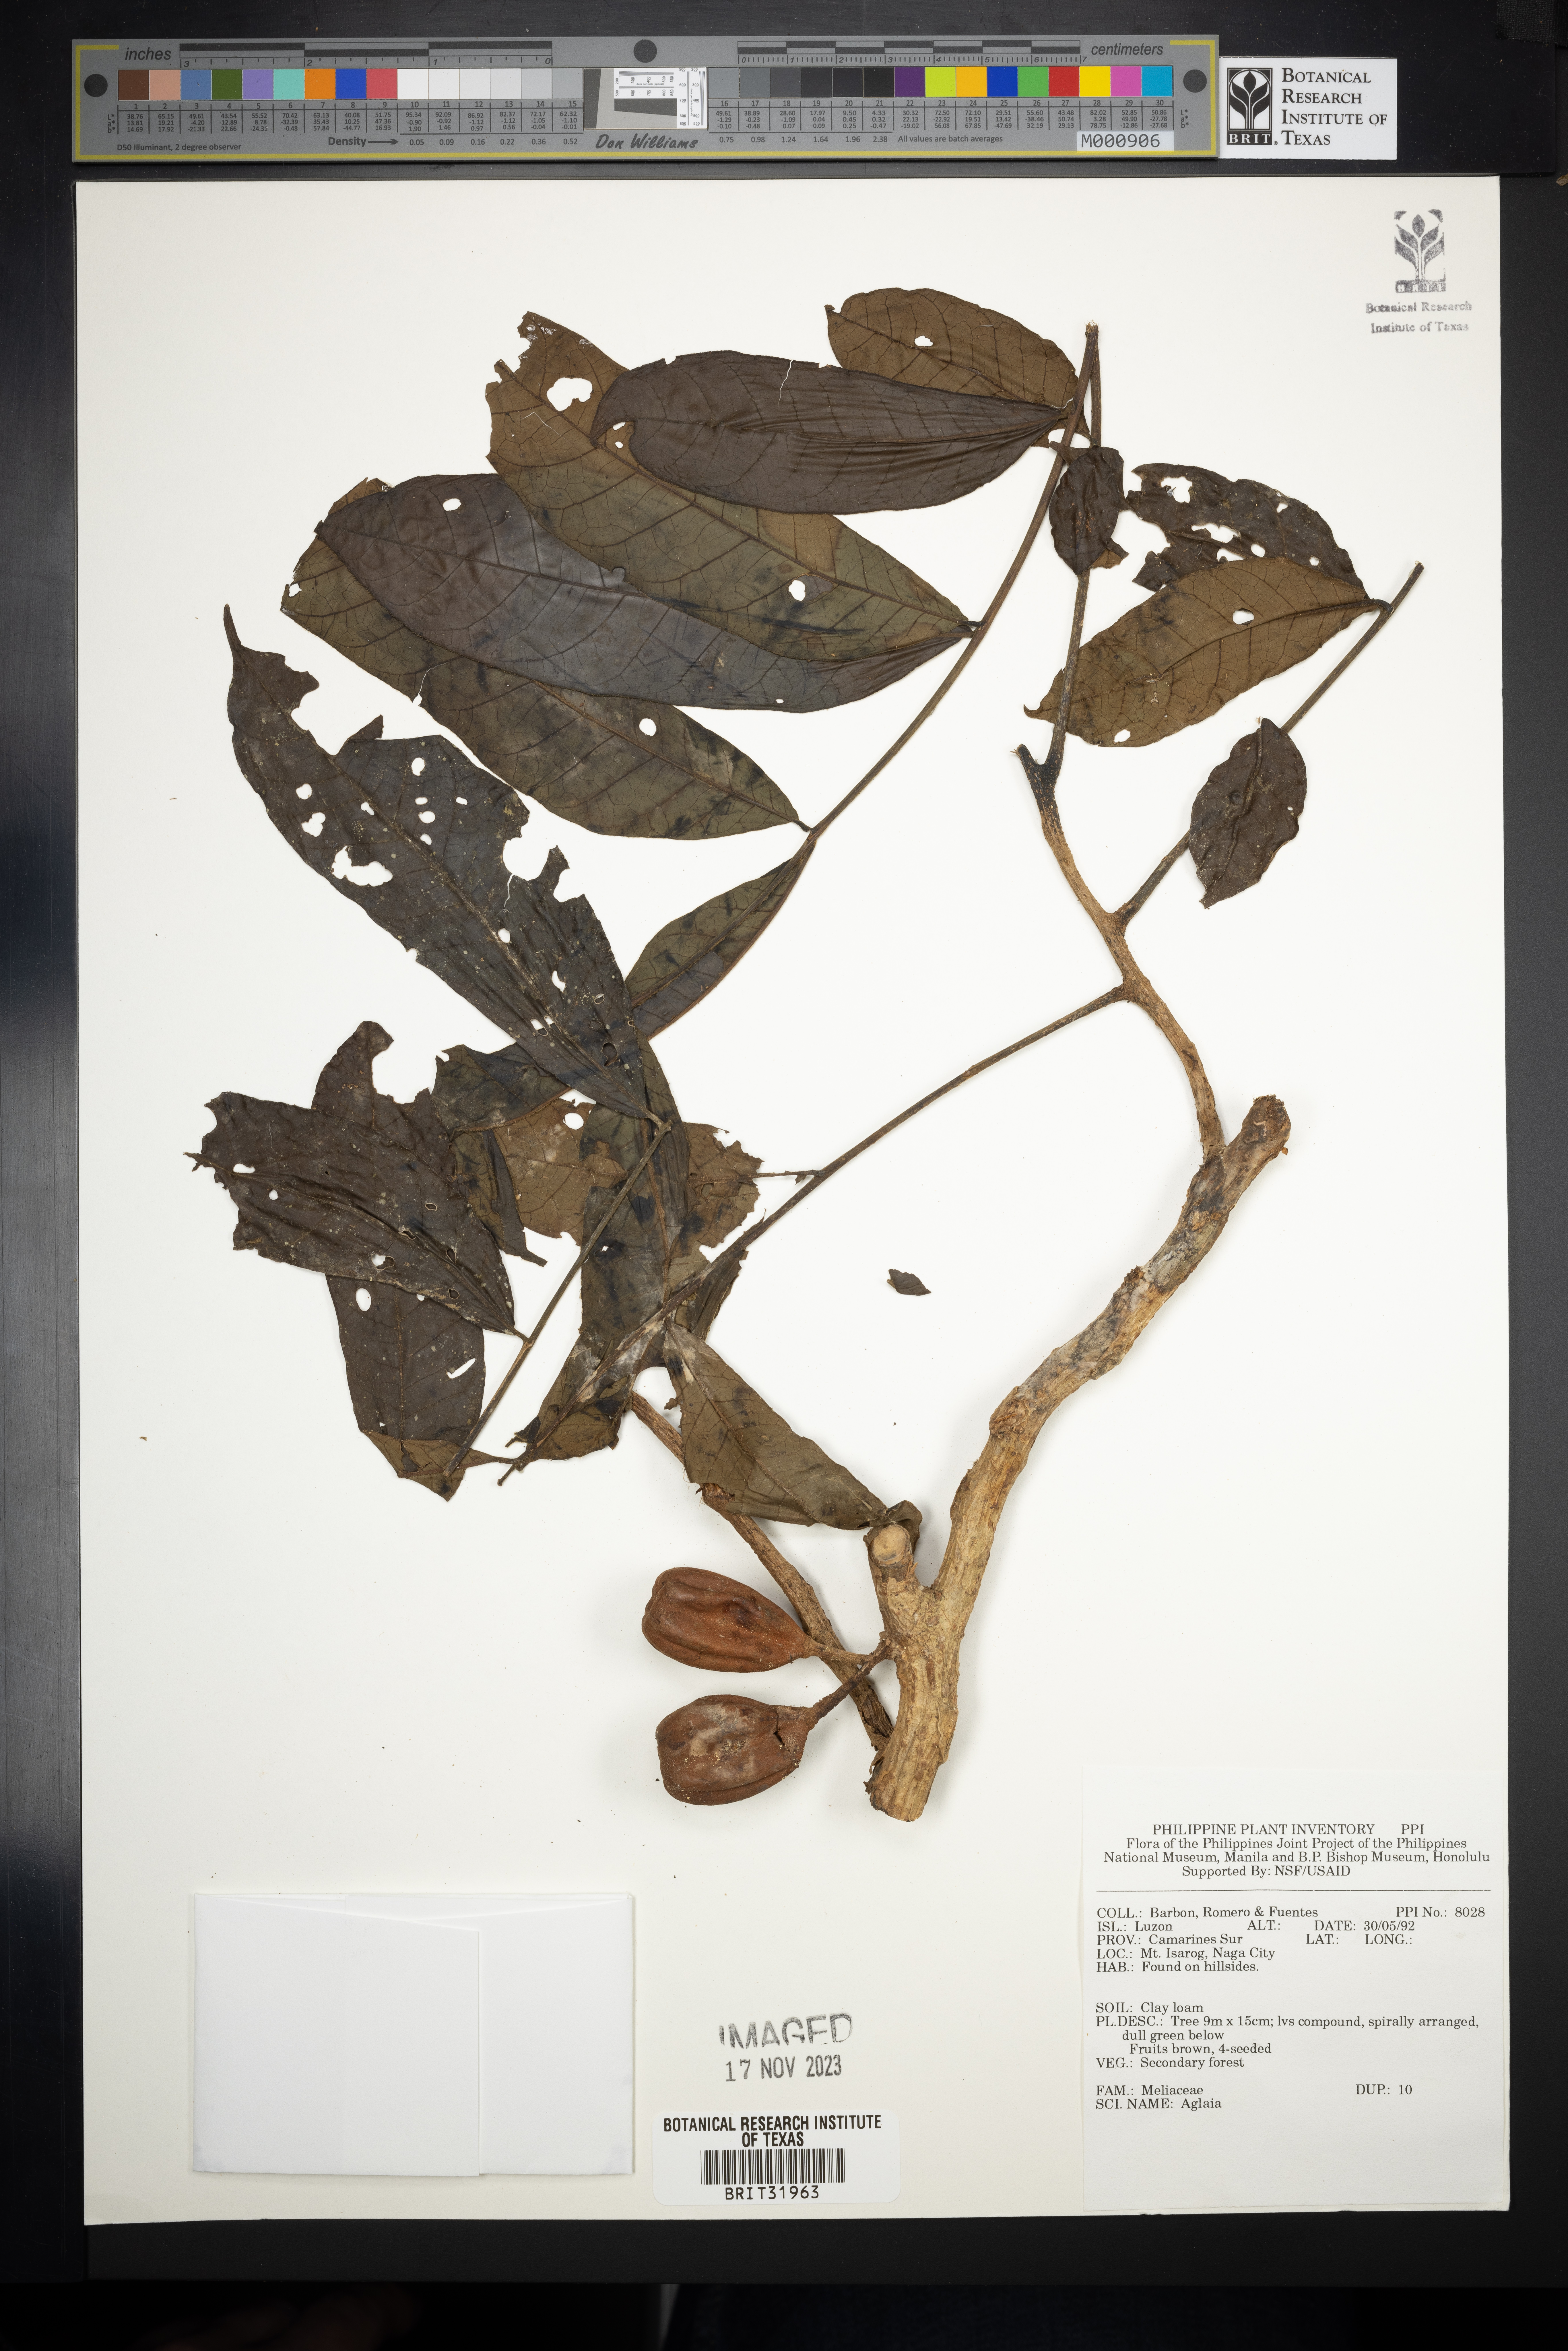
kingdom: Plantae
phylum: Tracheophyta
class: Magnoliopsida
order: Sapindales
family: Meliaceae
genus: Aglaia
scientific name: Aglaia
